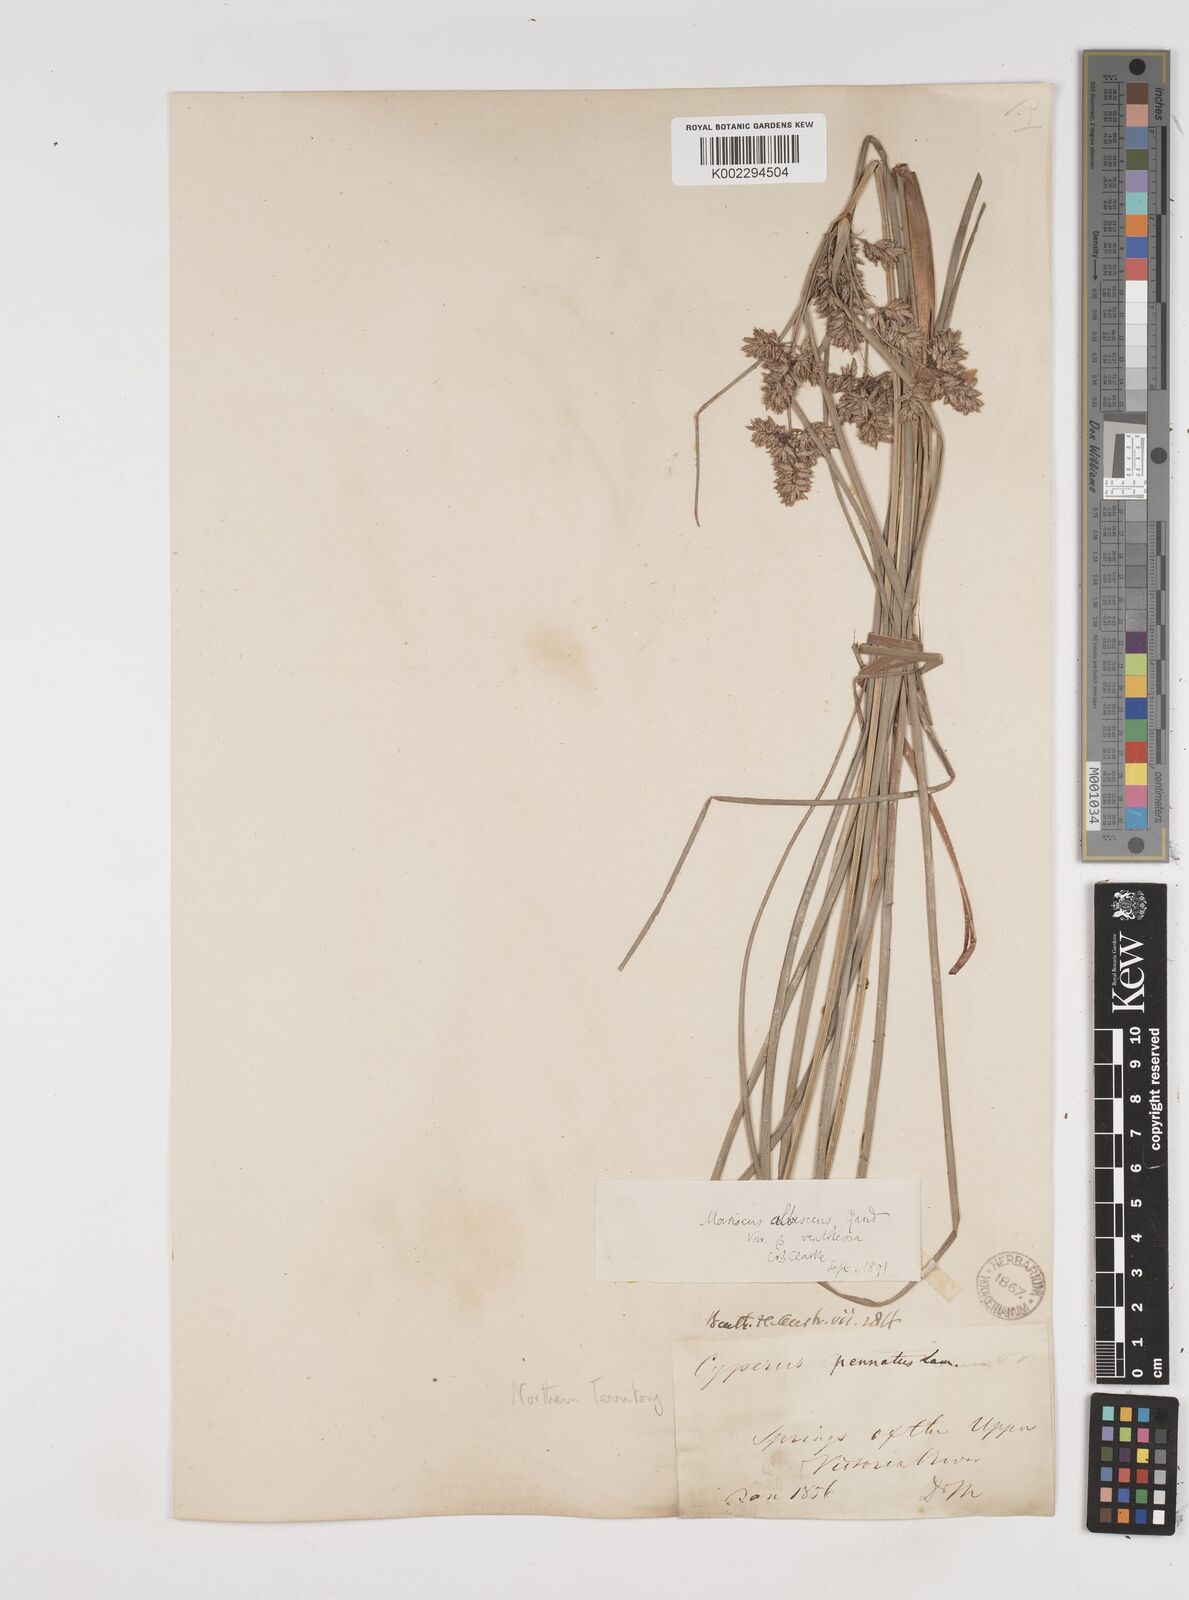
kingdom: Plantae
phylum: Tracheophyta
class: Liliopsida
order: Poales
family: Cyperaceae
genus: Cyperus
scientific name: Cyperus javanicus
